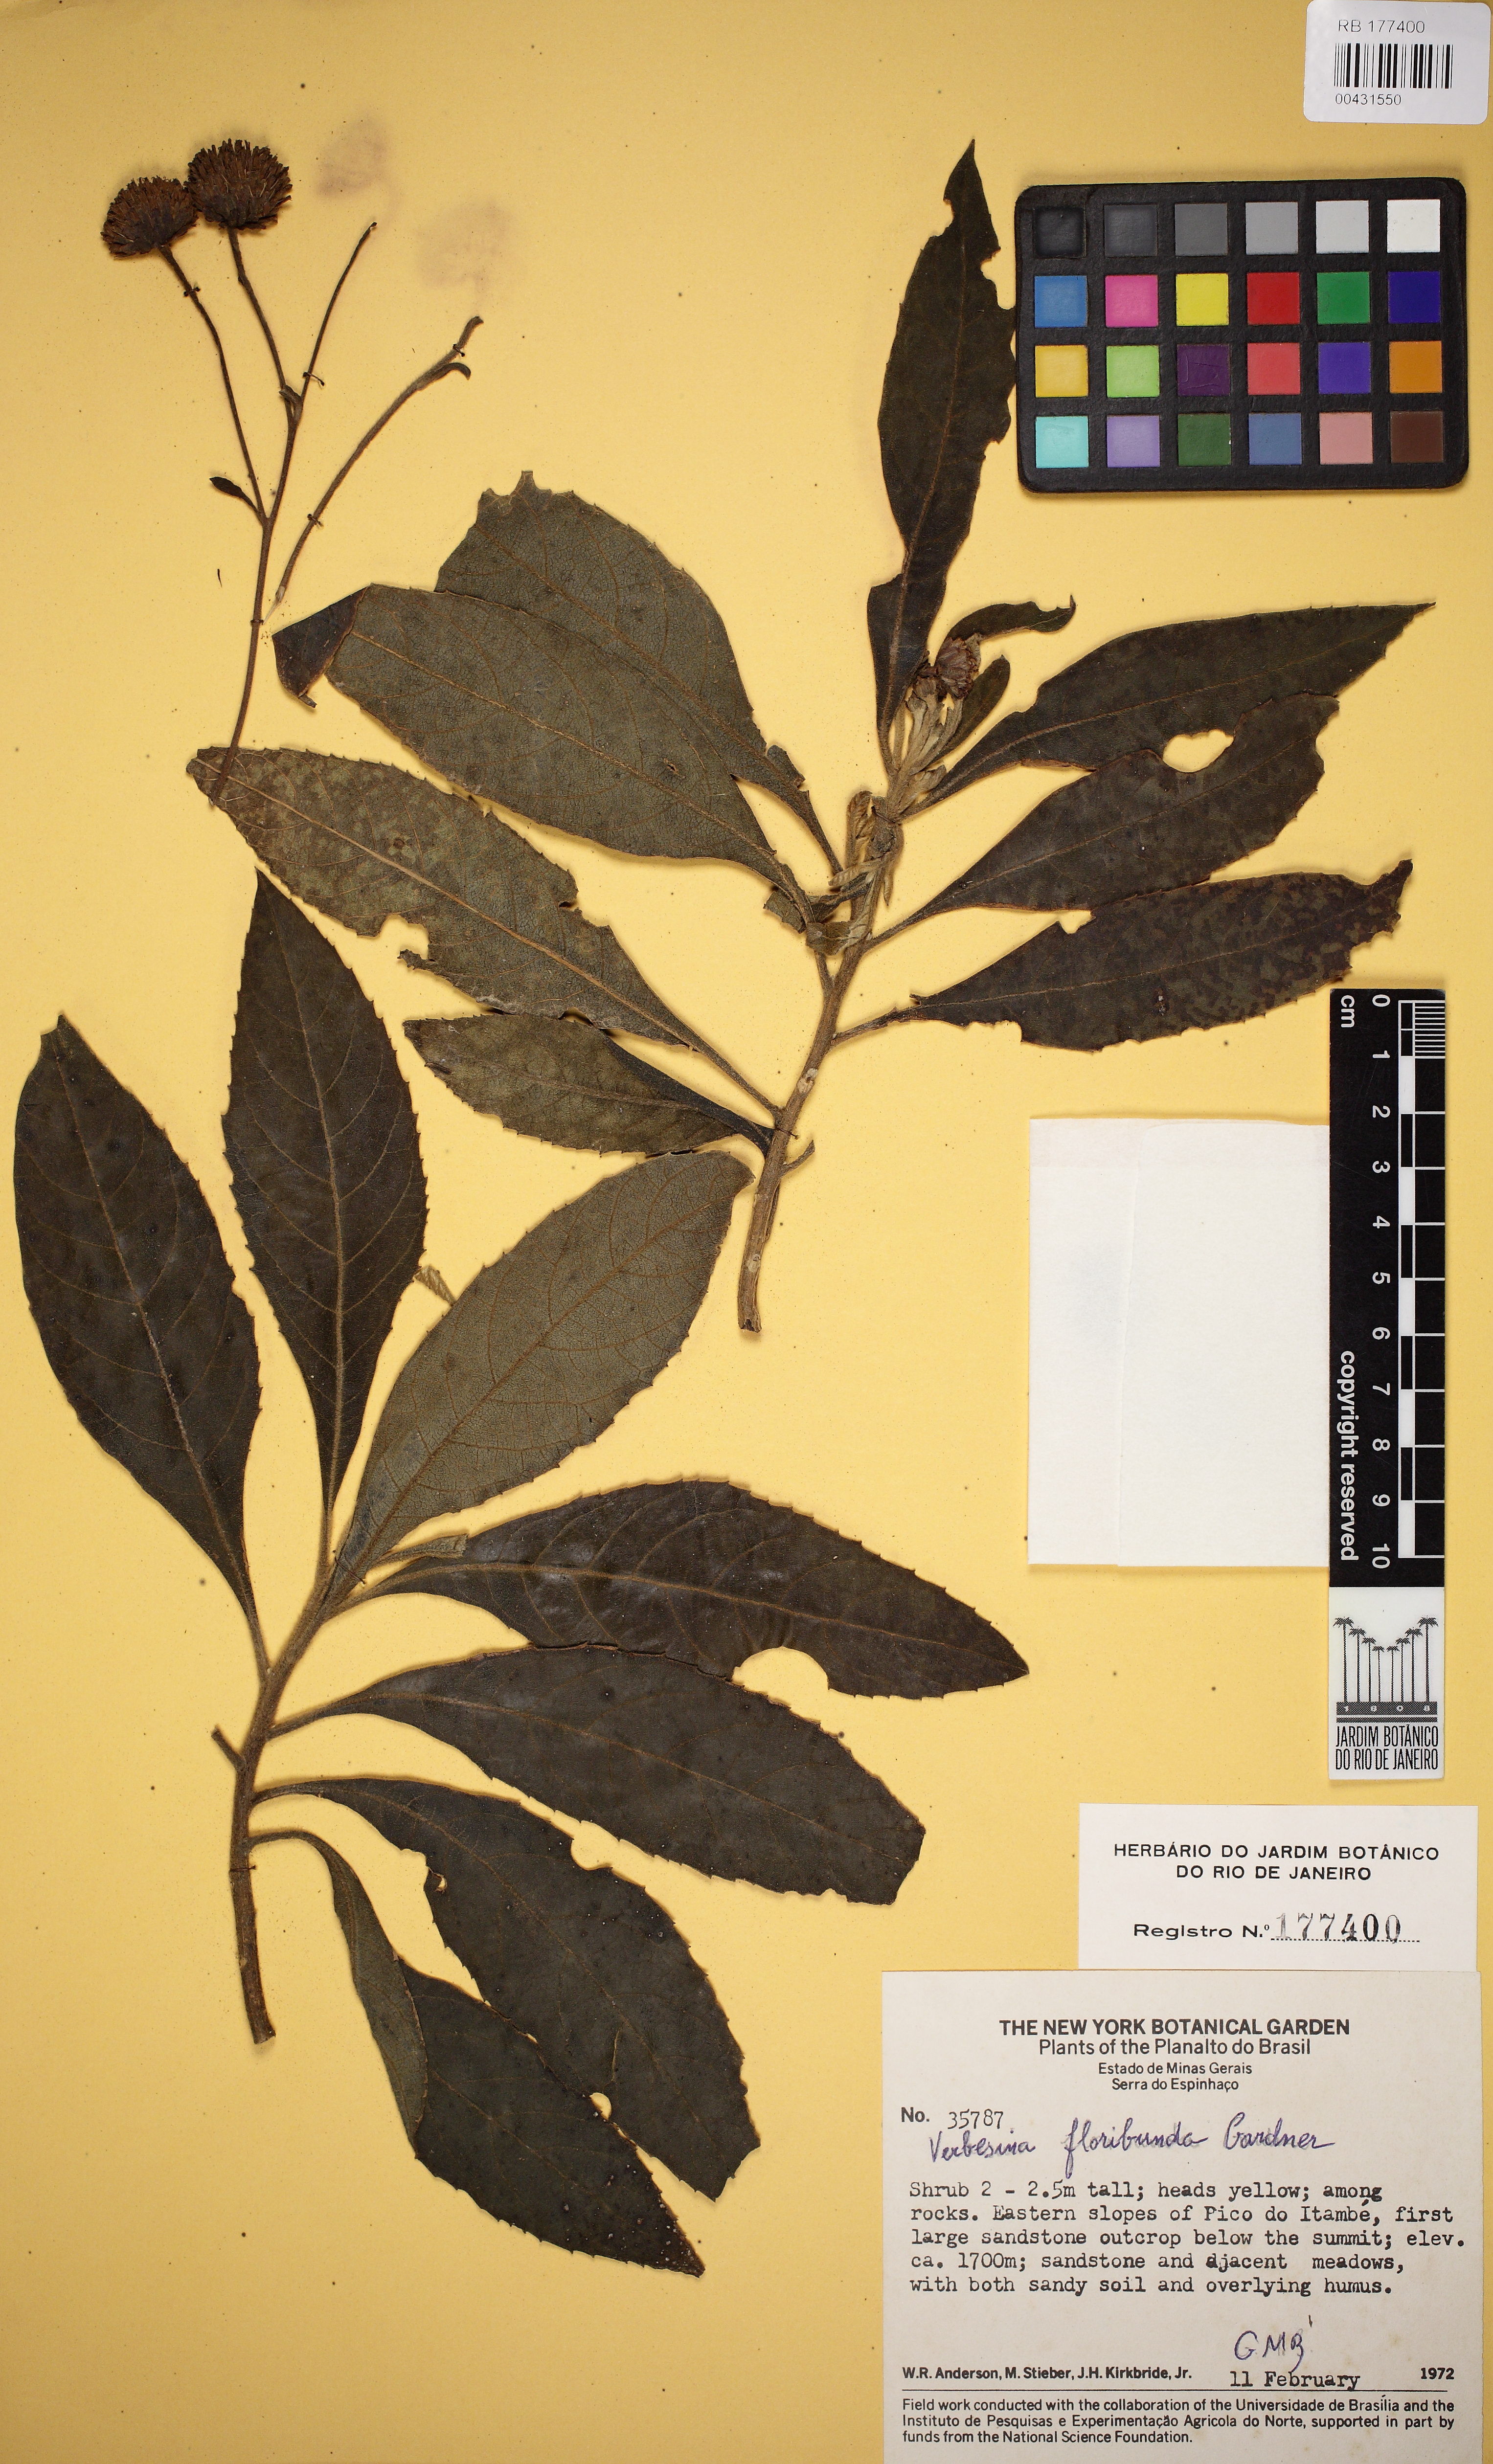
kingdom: Plantae
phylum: Tracheophyta
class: Magnoliopsida
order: Asterales
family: Asteraceae
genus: Verbesina
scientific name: Verbesina floribunda
